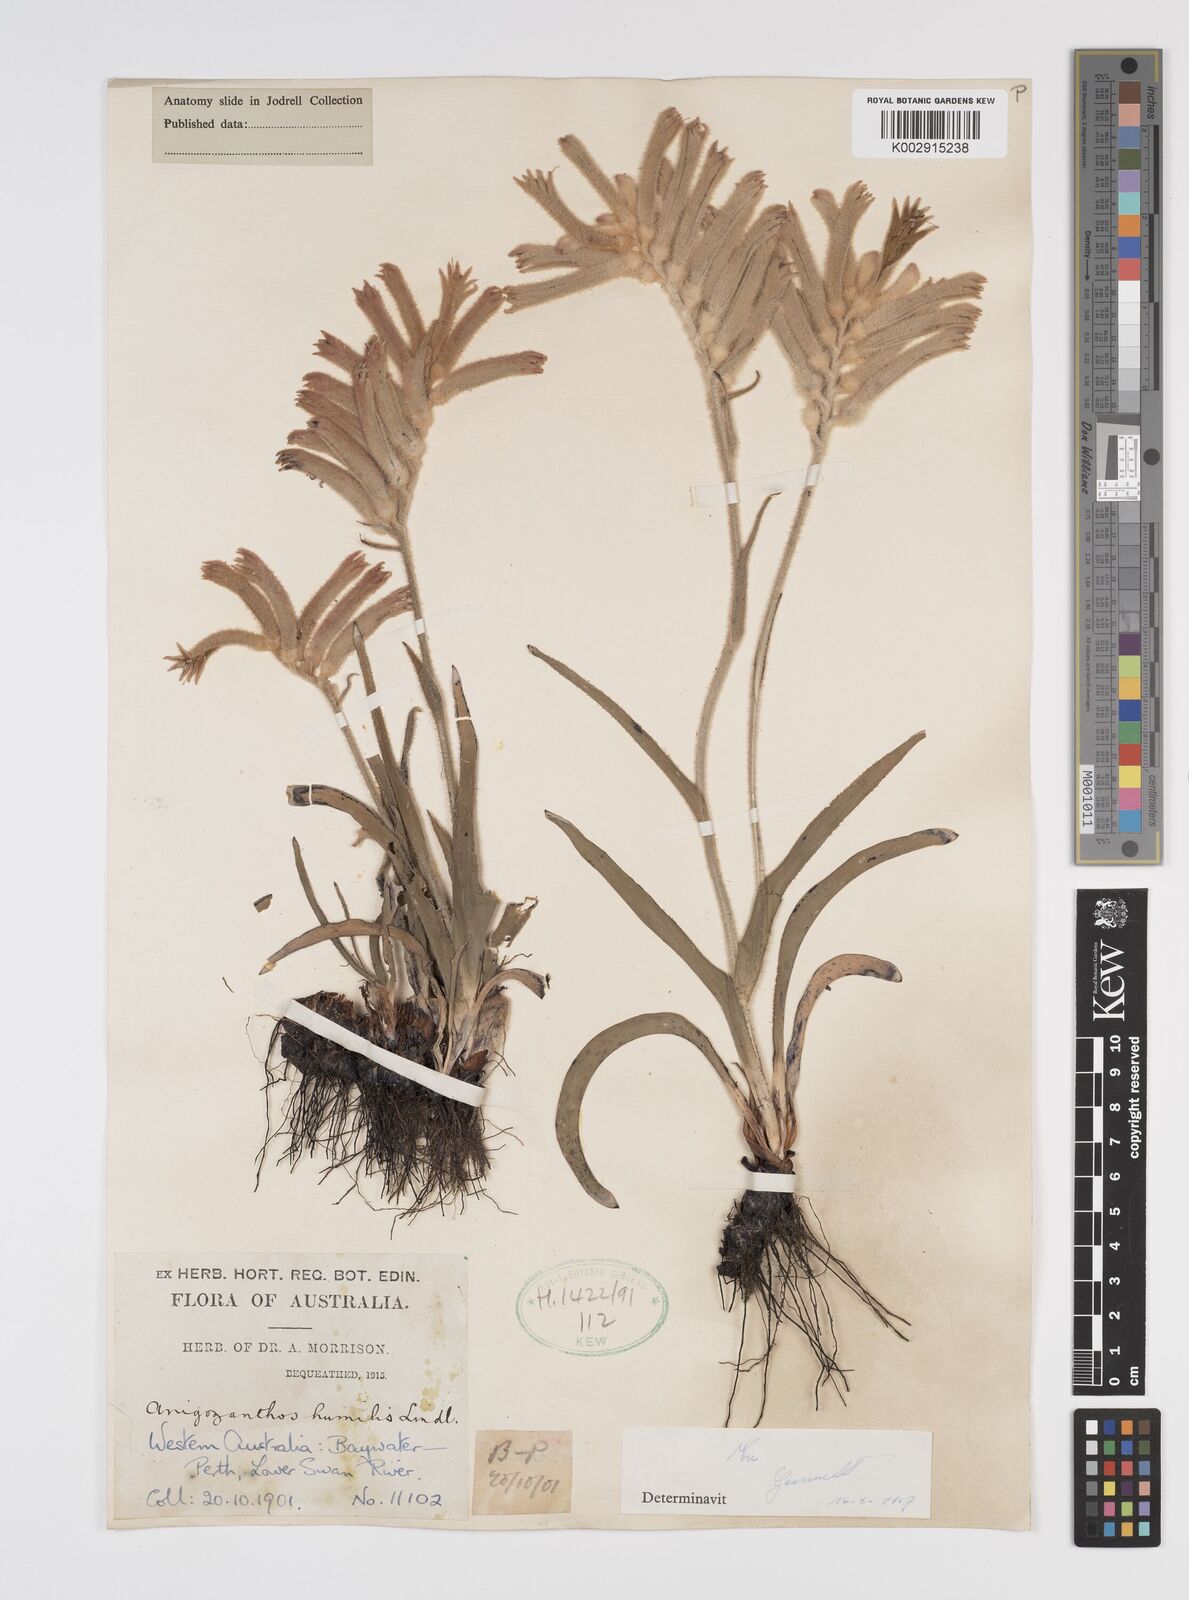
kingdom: Plantae
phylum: Tracheophyta
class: Liliopsida
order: Commelinales
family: Haemodoraceae
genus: Anigozanthos
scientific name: Anigozanthos humilis
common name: Cat's-paw
